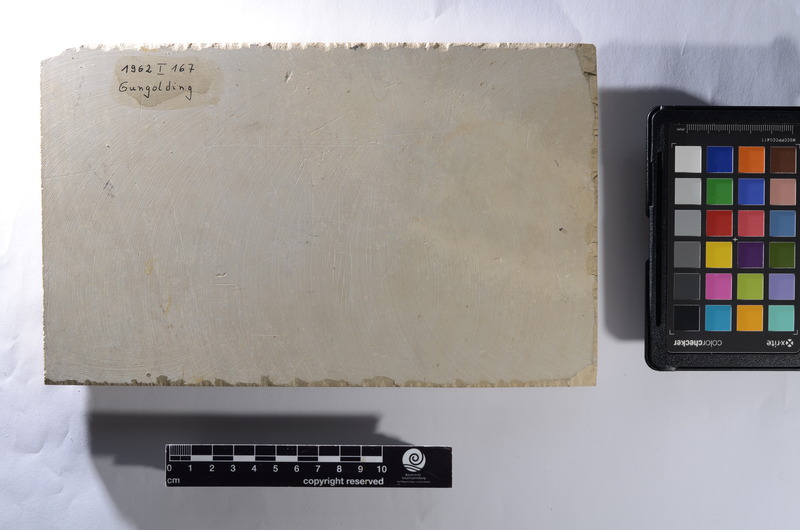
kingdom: Animalia
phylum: Chordata
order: Amiiformes
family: Caturidae
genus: Caturus
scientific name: Caturus
